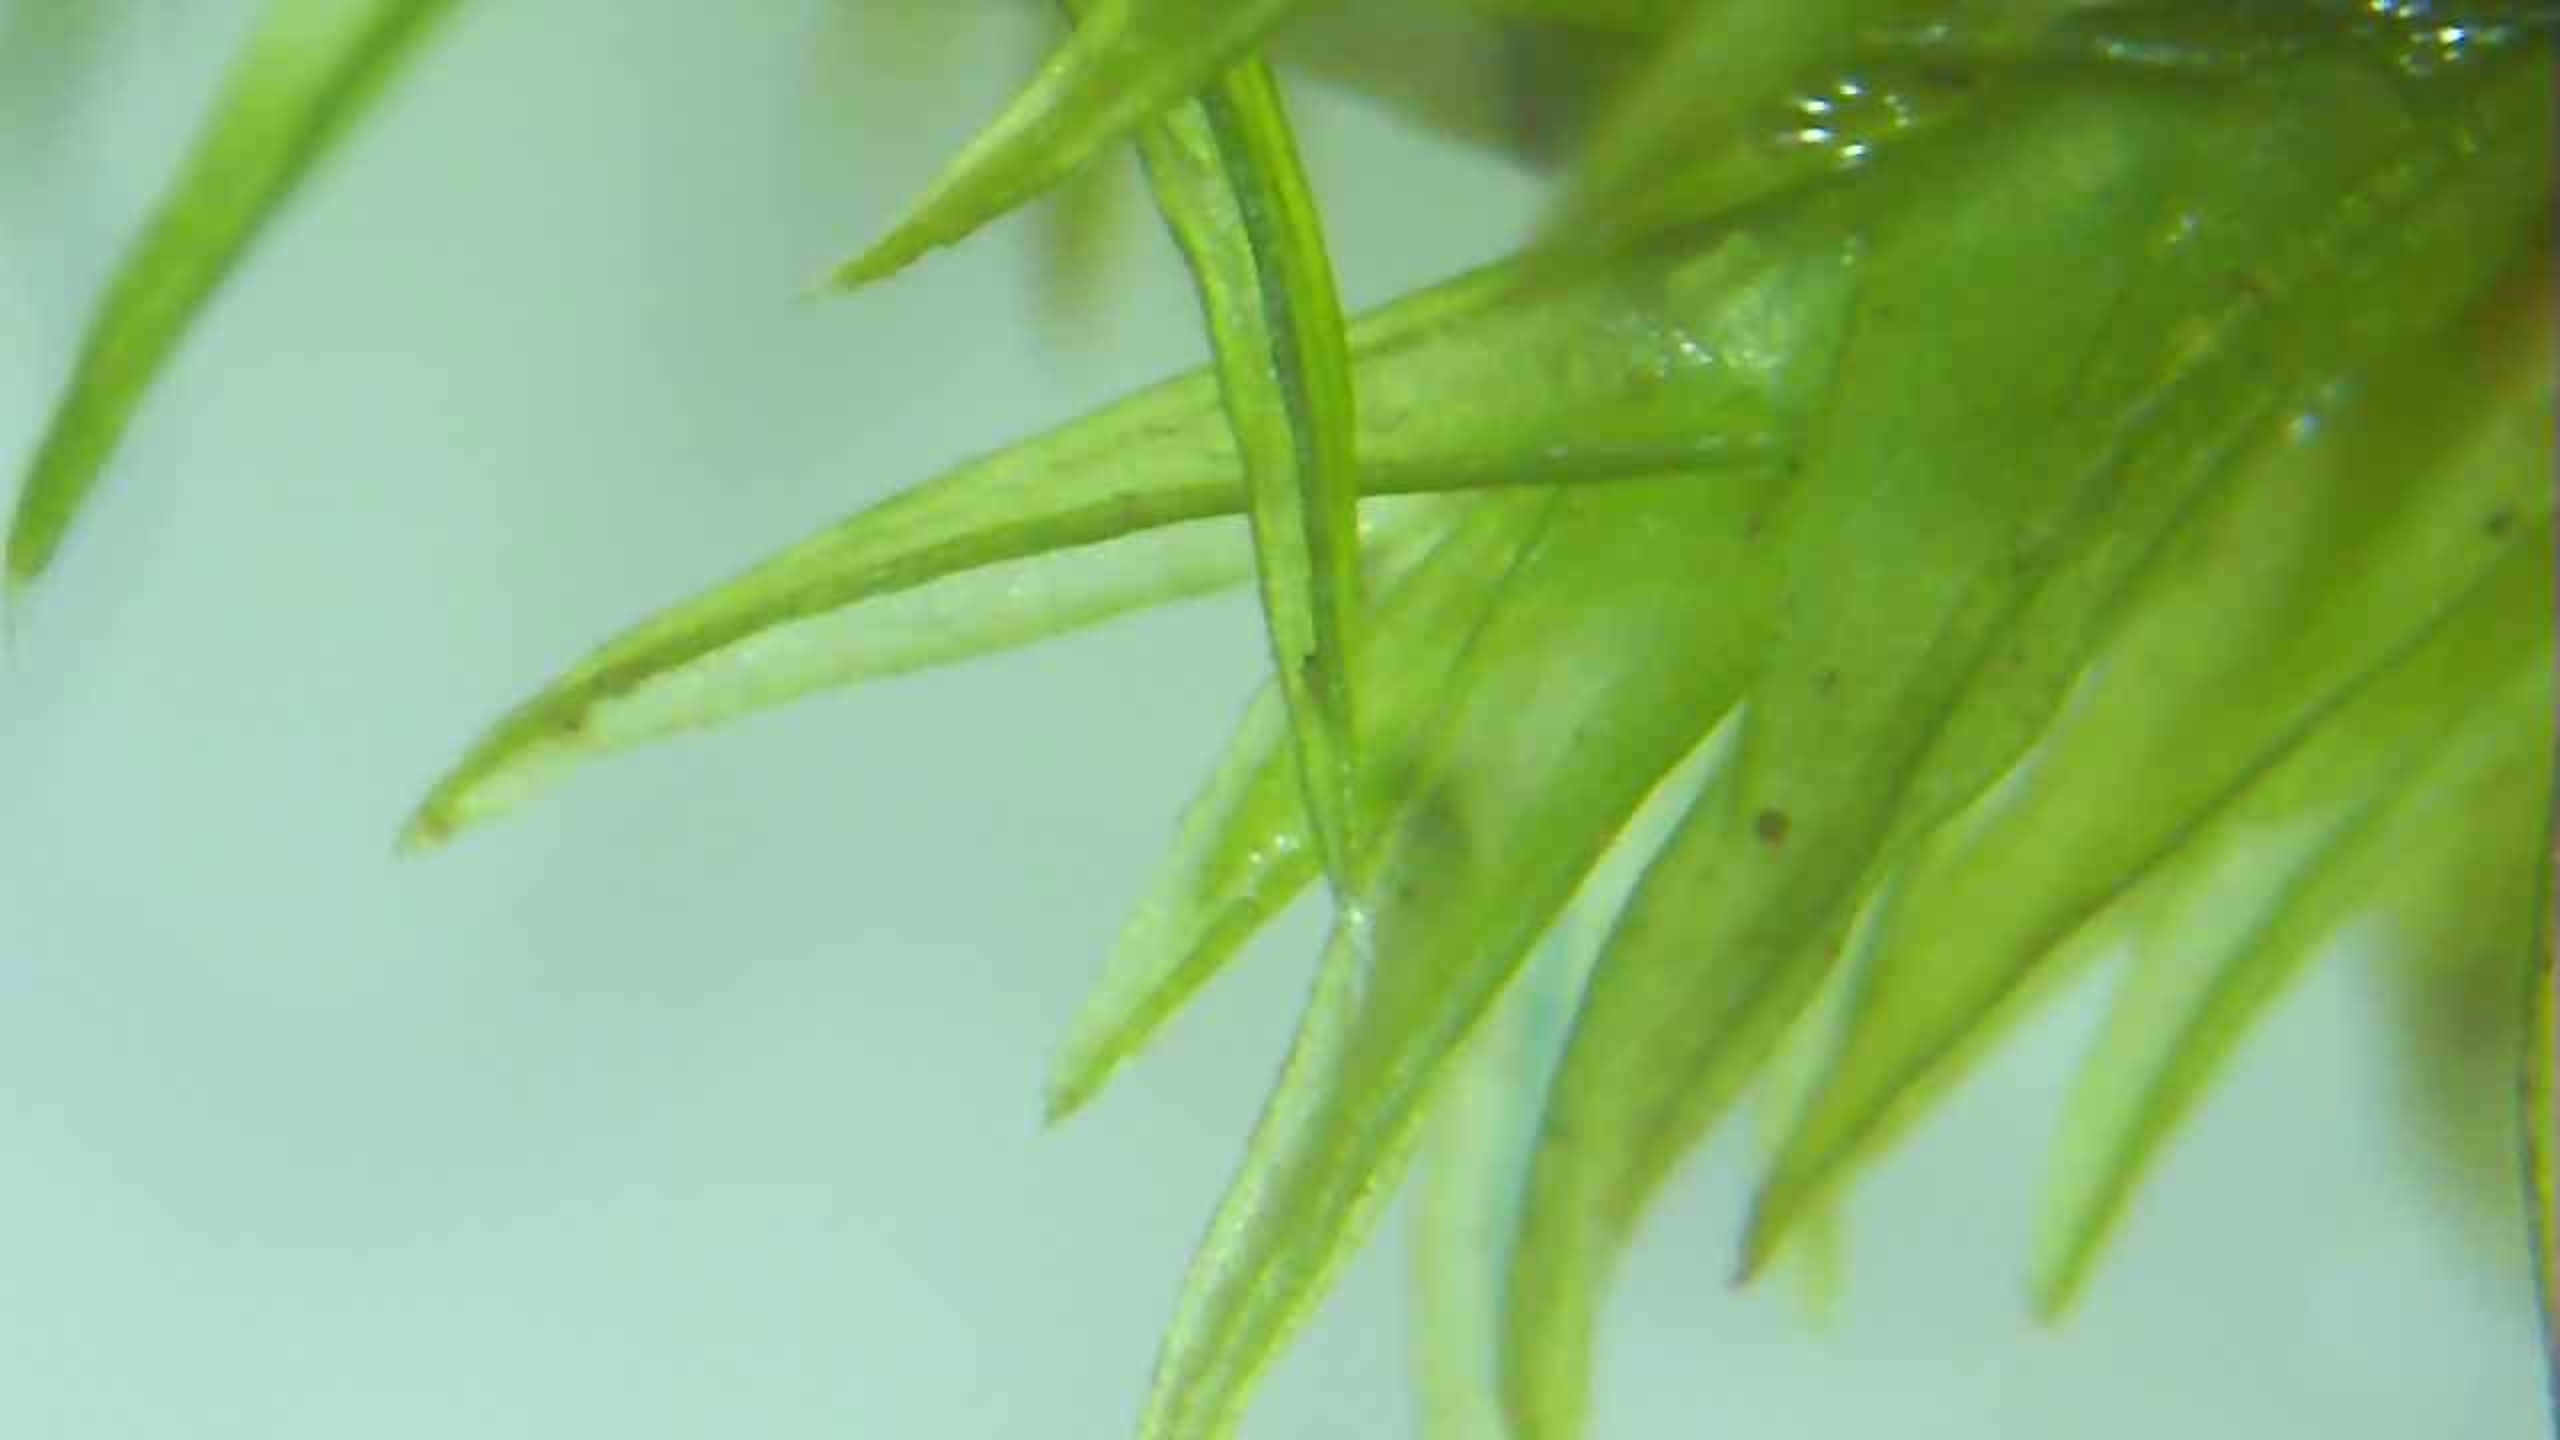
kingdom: Plantae
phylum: Bryophyta
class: Bryopsida
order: Grimmiales
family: Grimmiaceae
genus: Schistidium
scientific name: Schistidium
